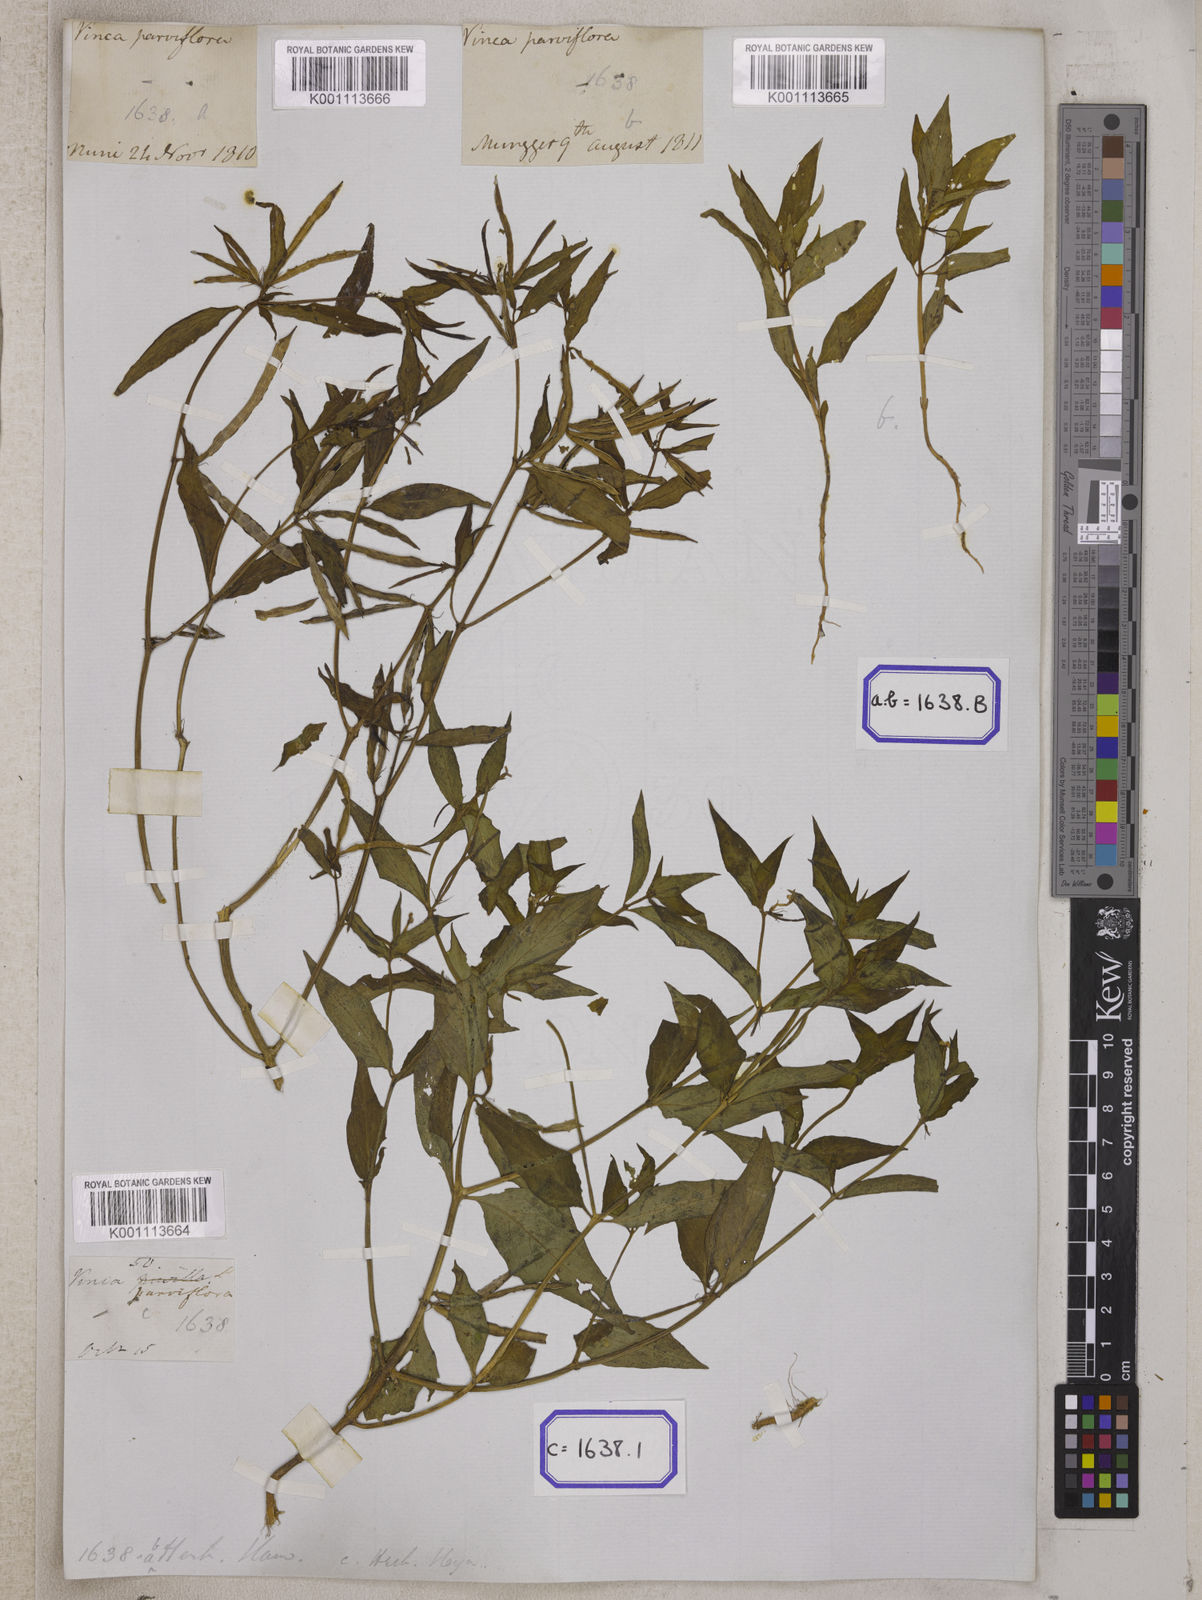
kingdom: Plantae
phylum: Tracheophyta
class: Magnoliopsida
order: Gentianales
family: Apocynaceae
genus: Vinca
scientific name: Vinca
